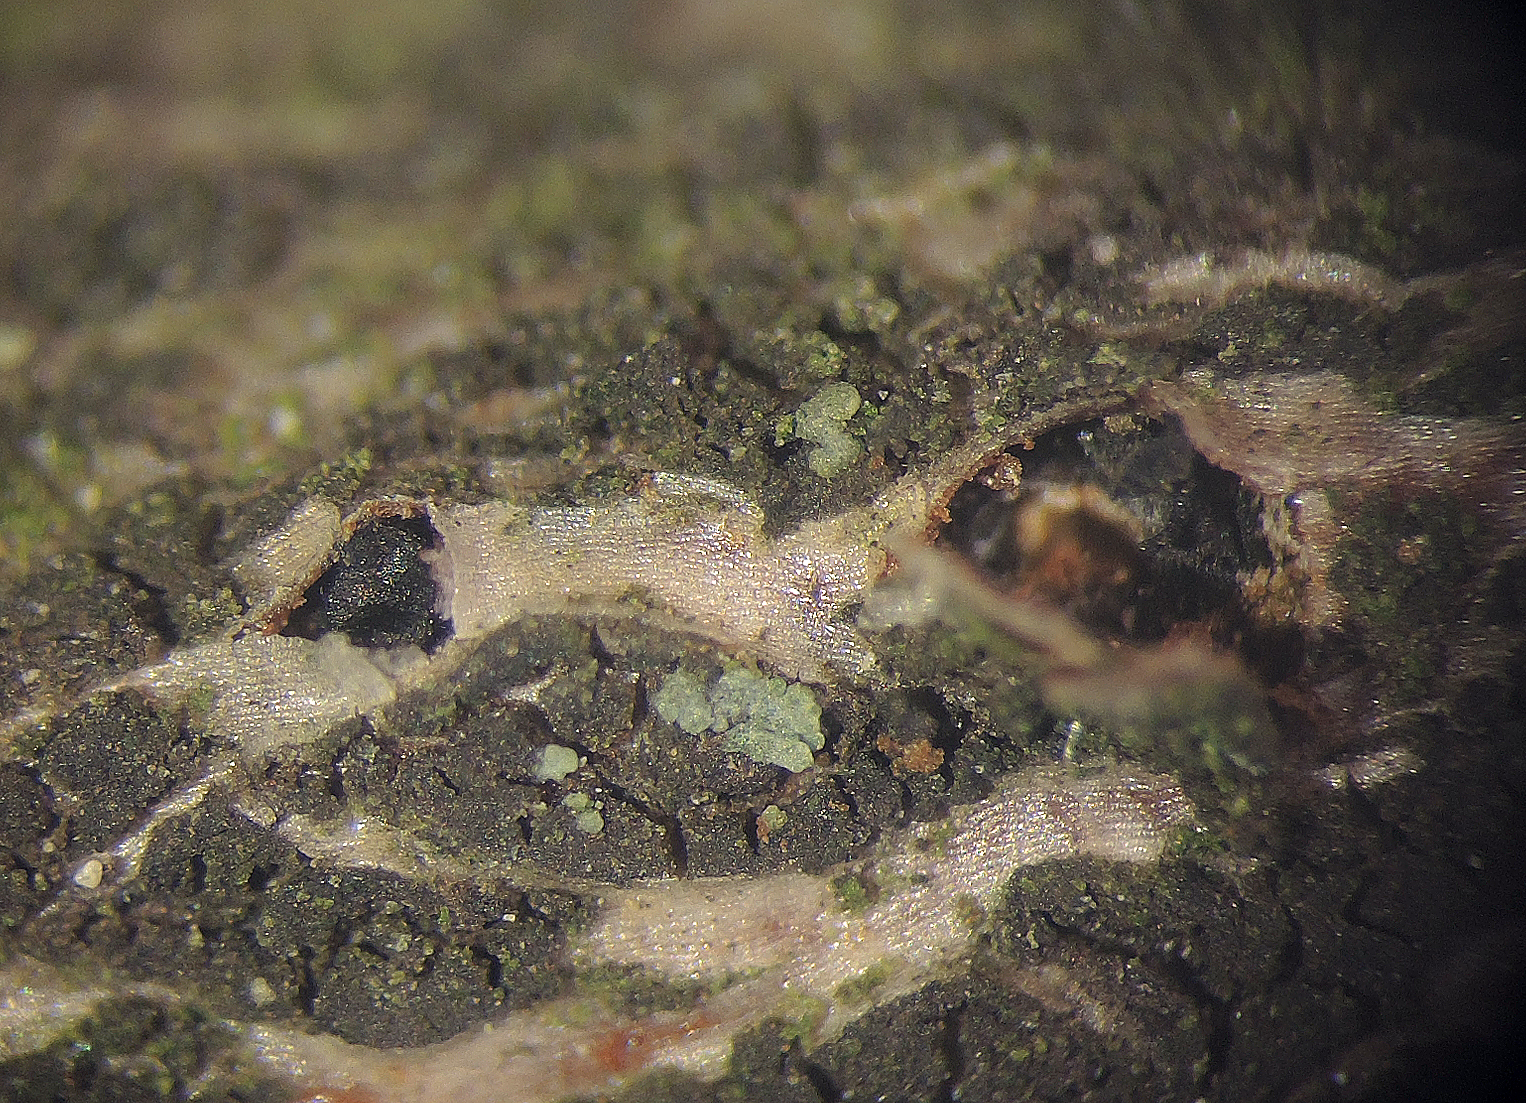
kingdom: Fungi
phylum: Ascomycota
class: Sordariomycetes
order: Diaporthales
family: Lamproconiaceae
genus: Hercospora
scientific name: Hercospora tiliae
